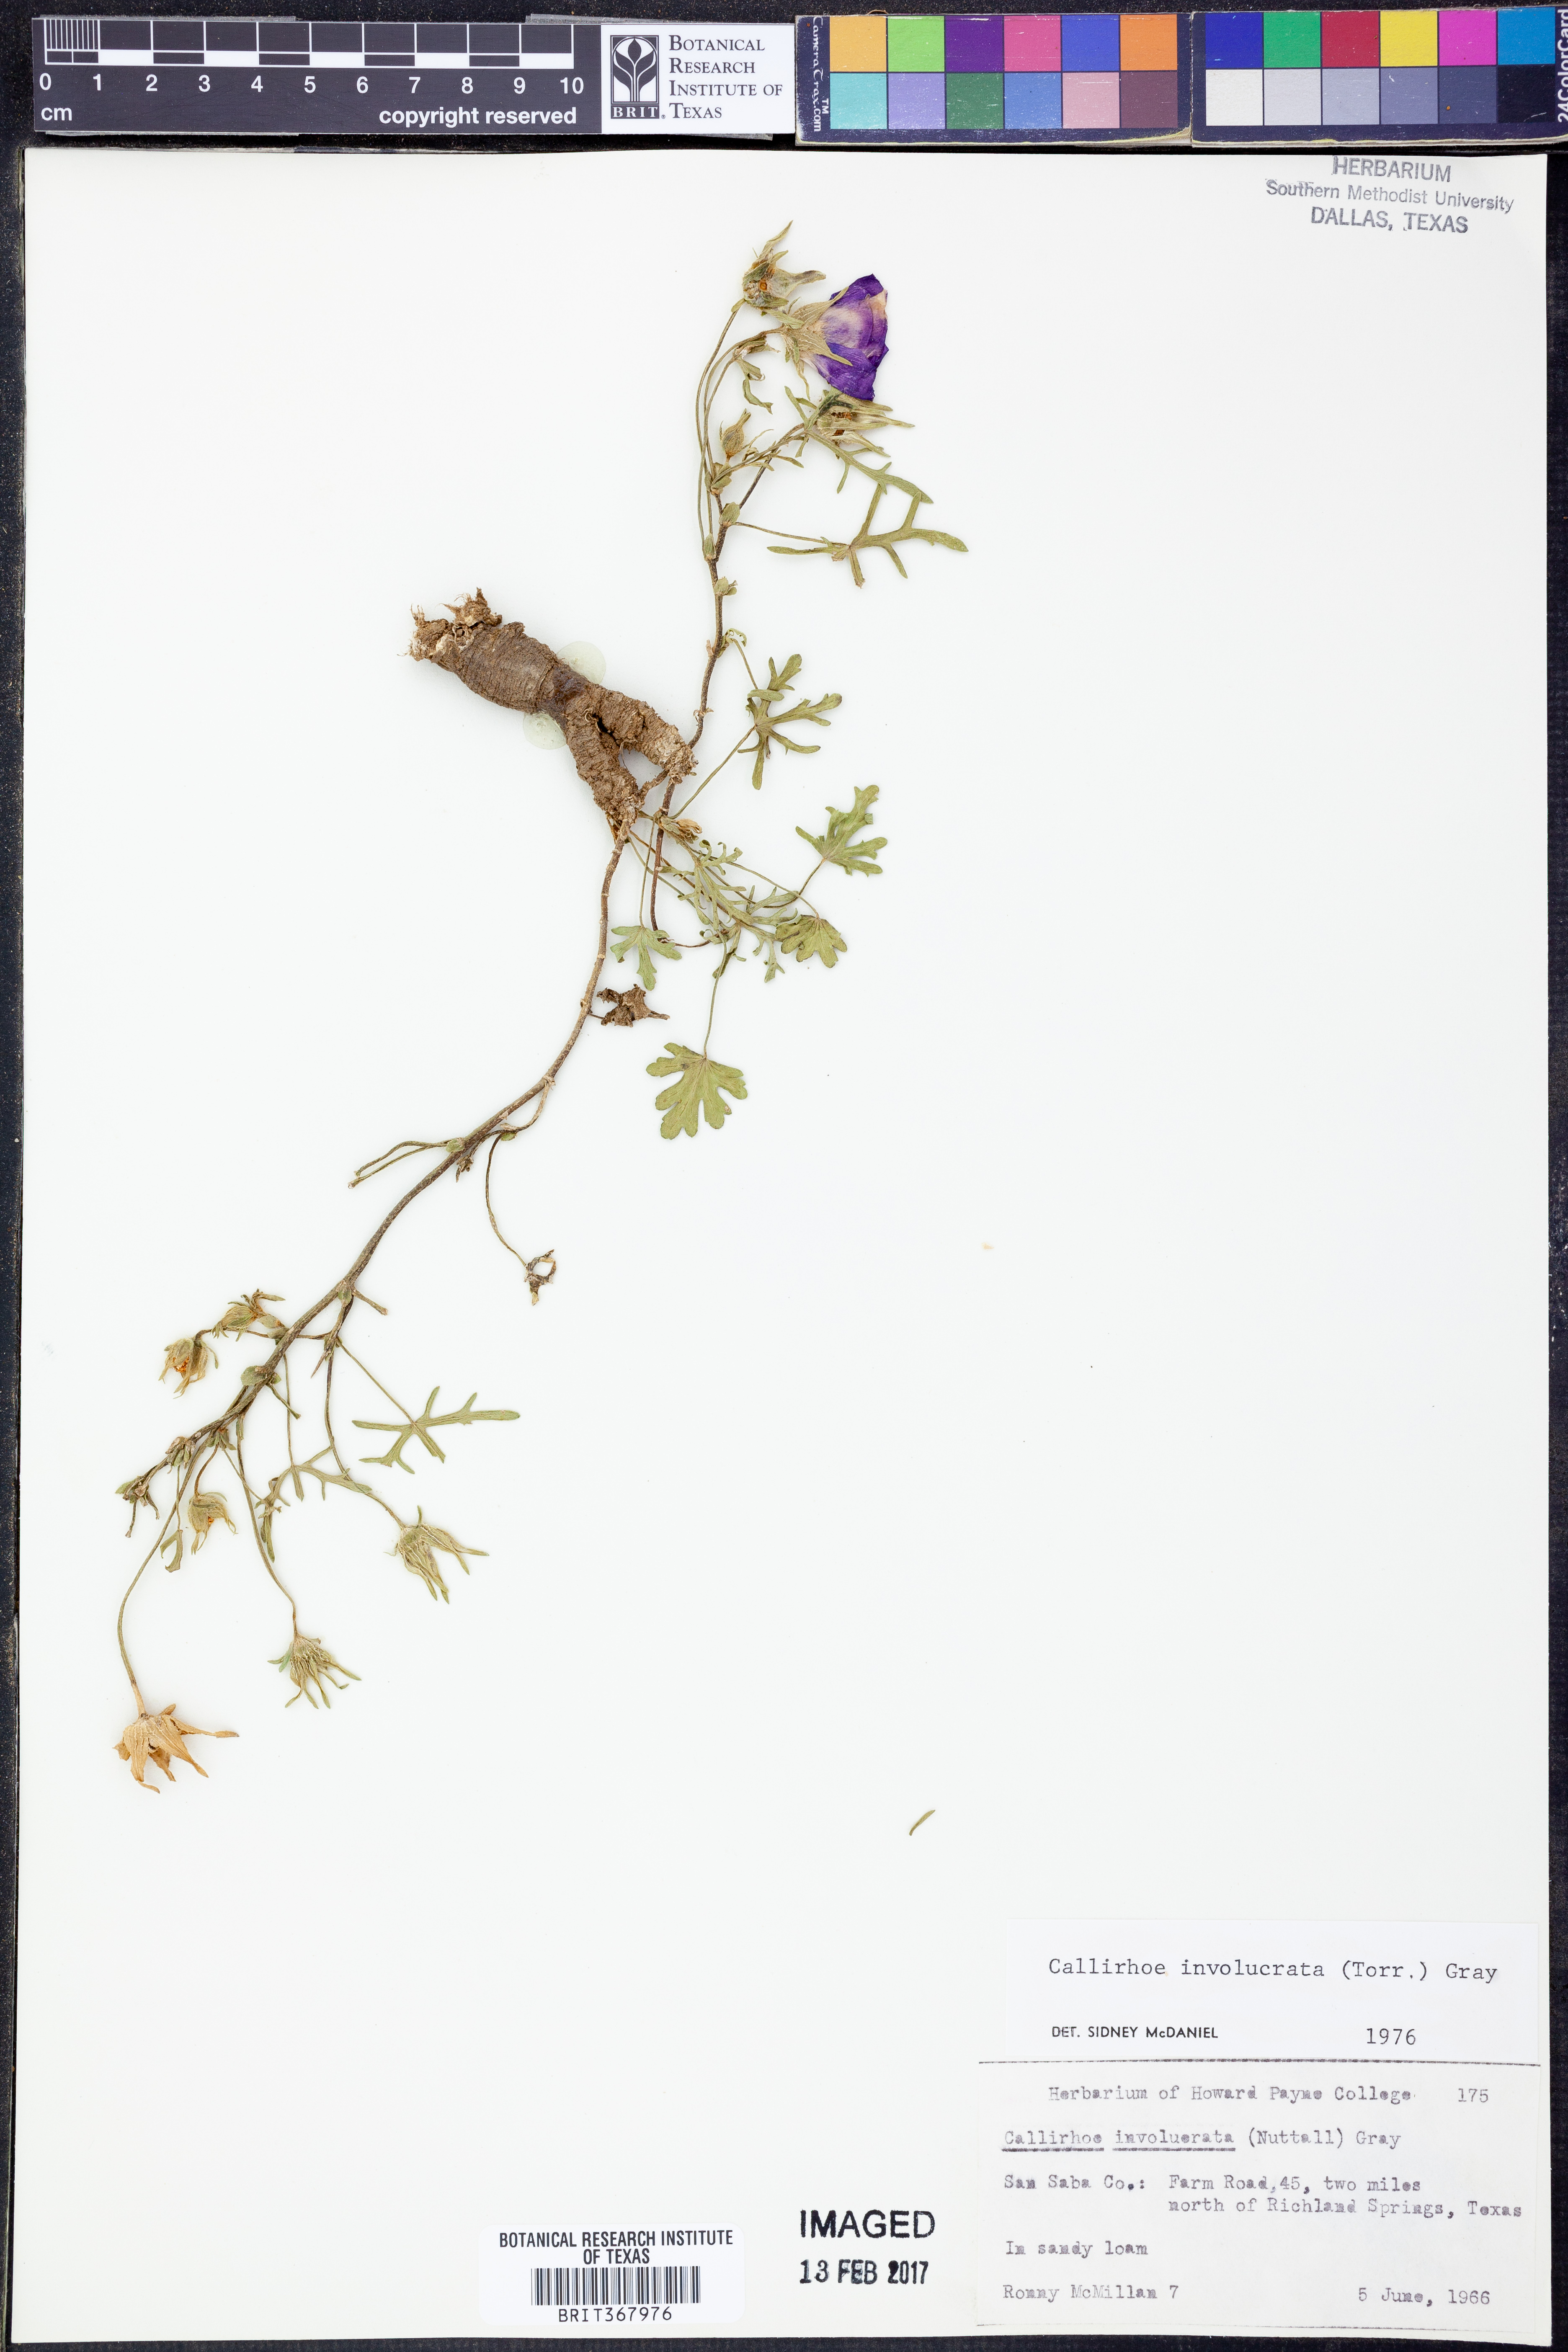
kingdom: Plantae
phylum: Tracheophyta
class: Magnoliopsida
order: Malvales
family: Malvaceae
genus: Callirhoe
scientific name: Callirhoe involucrata
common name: Purple poppy-mallow
